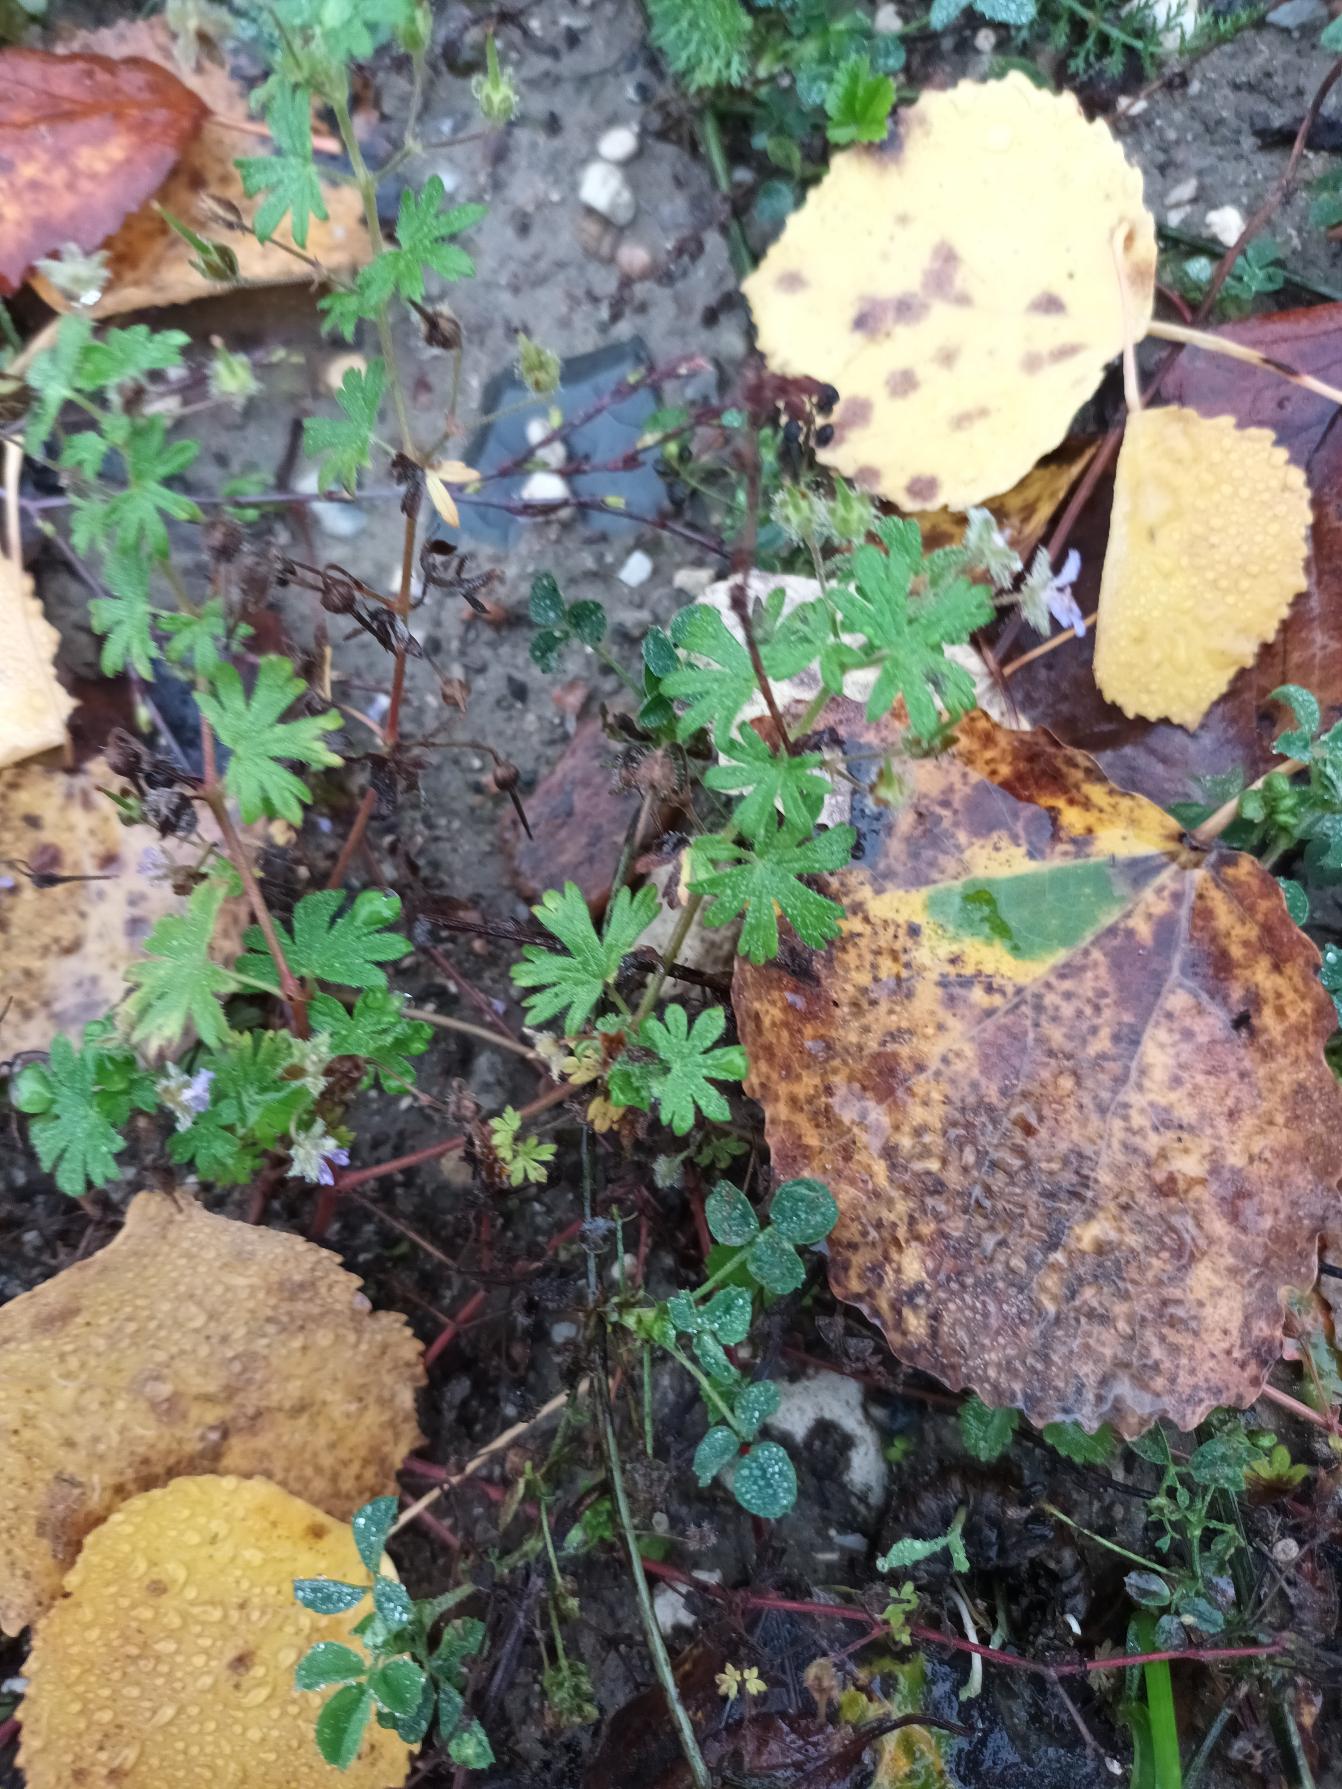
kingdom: Plantae
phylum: Tracheophyta
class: Magnoliopsida
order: Geraniales
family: Geraniaceae
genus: Geranium
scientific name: Geranium pusillum
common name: Liden storkenæb
